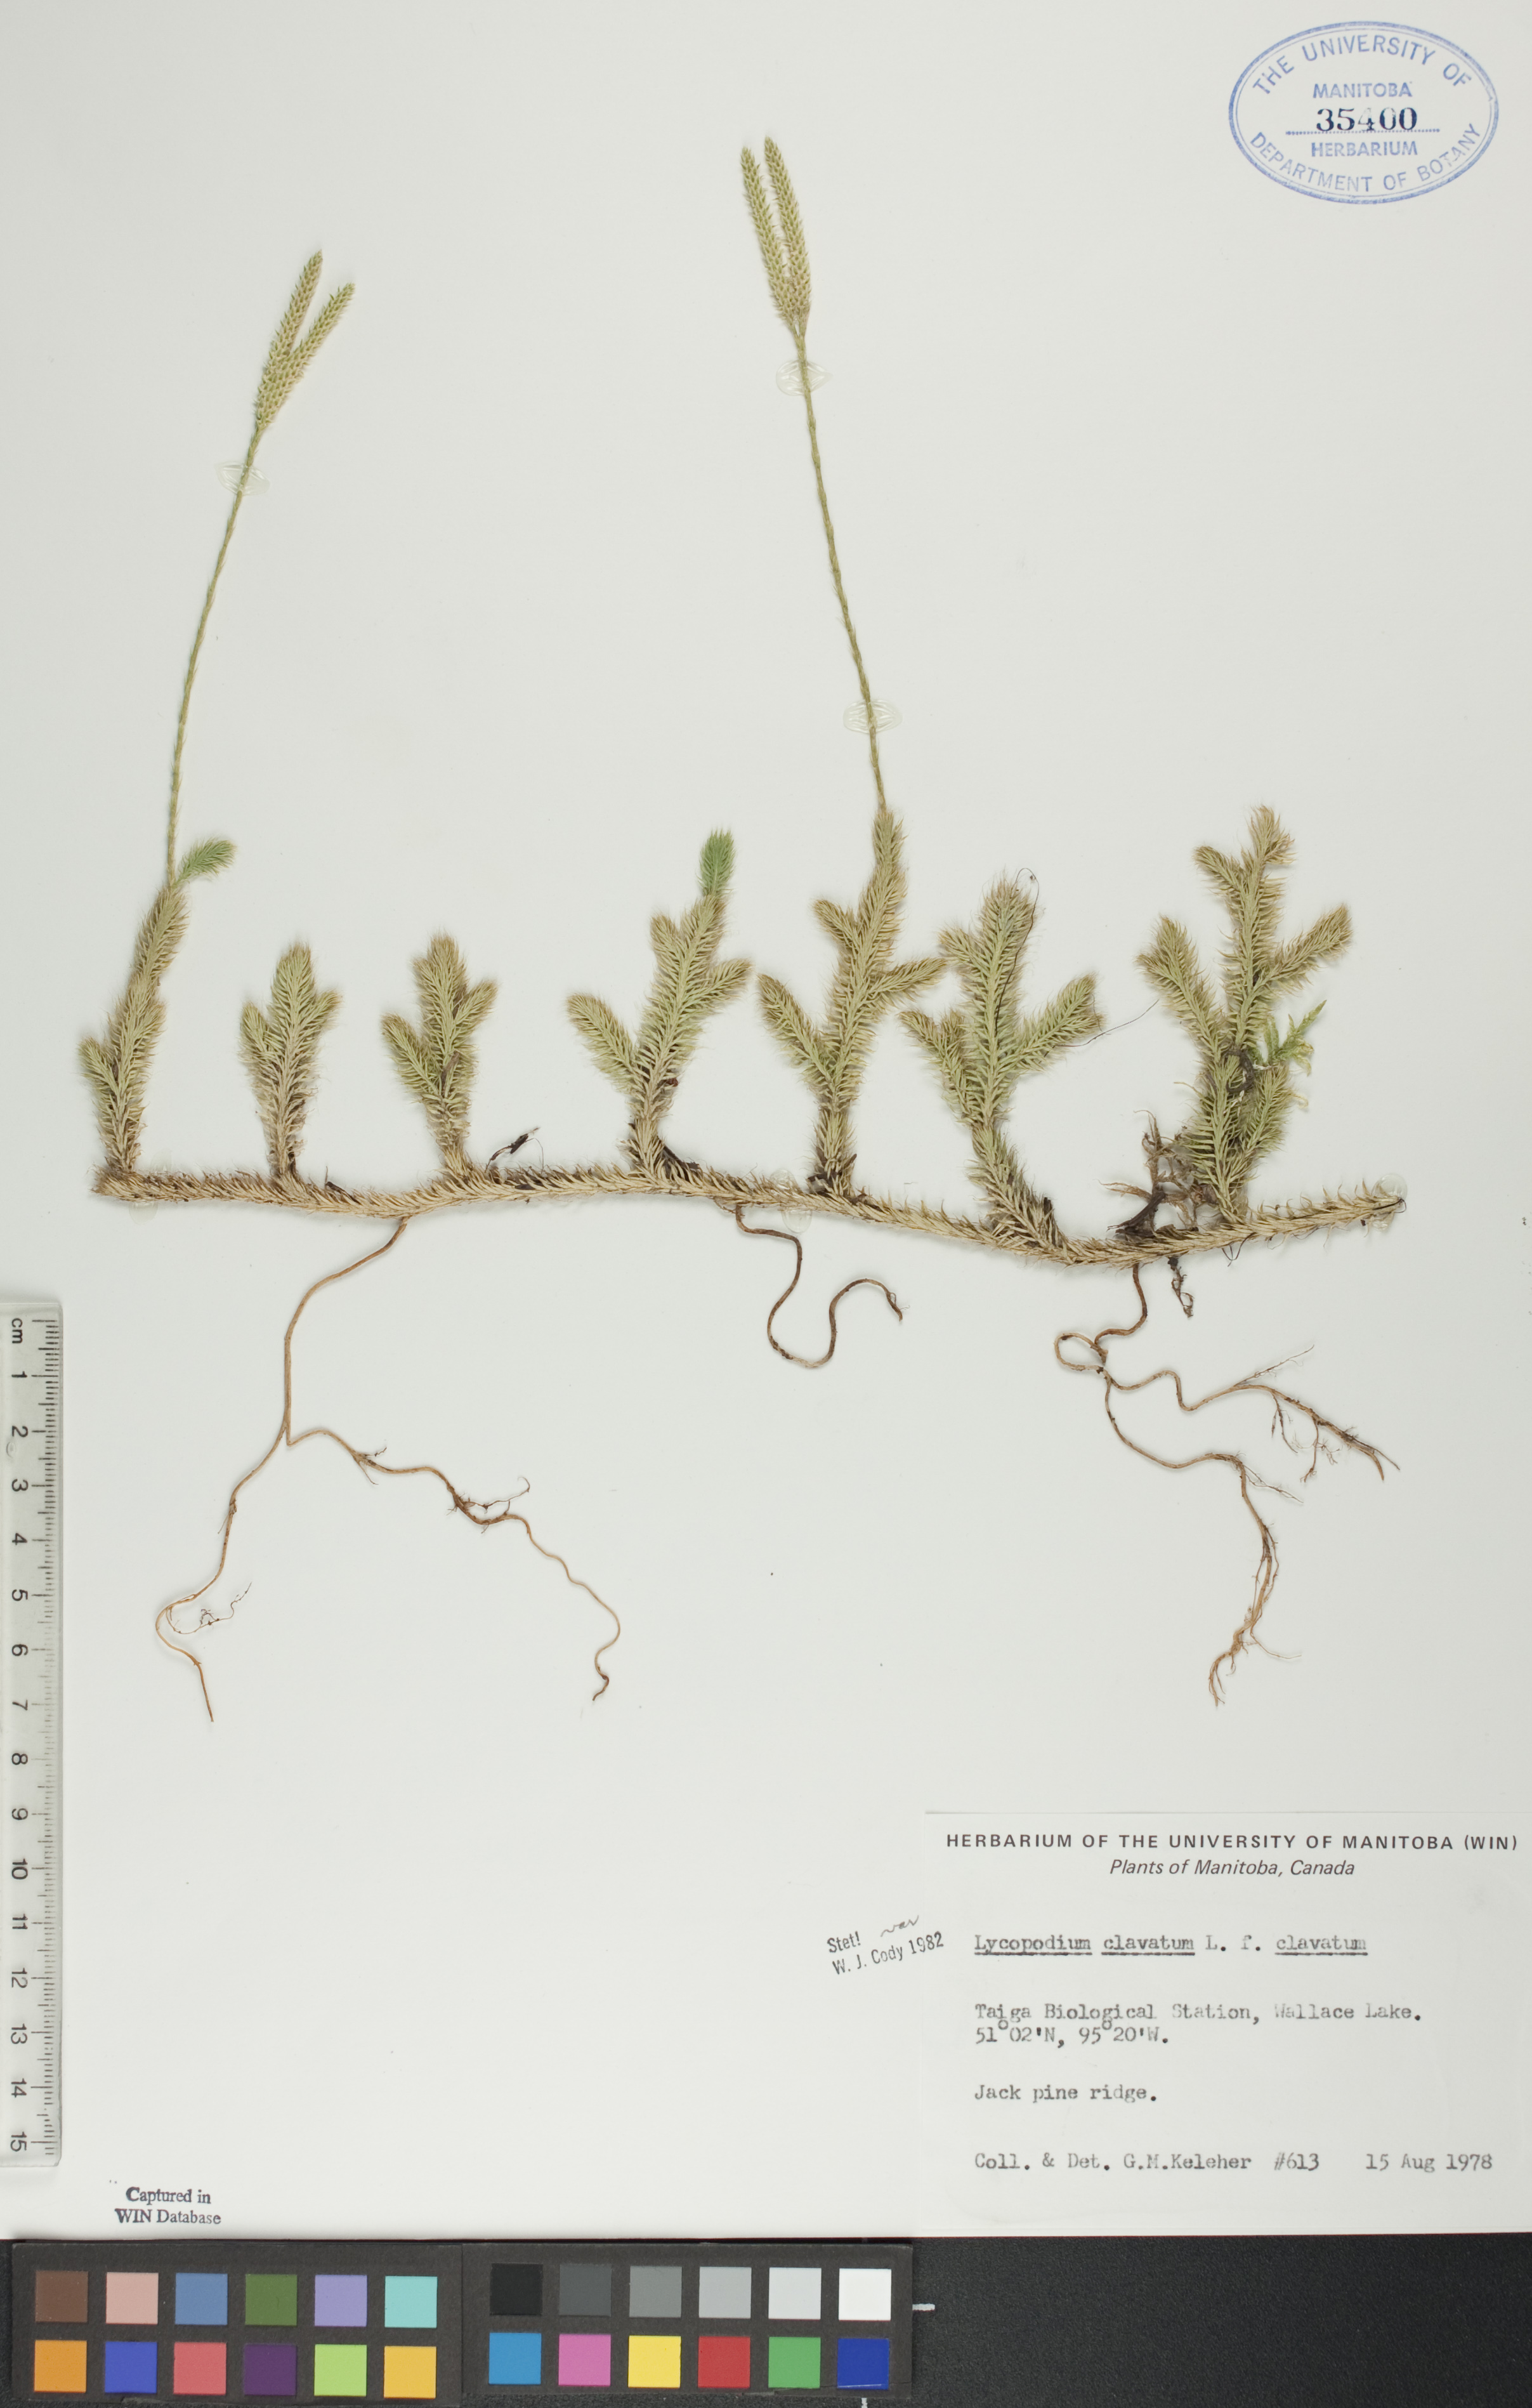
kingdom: Plantae
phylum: Tracheophyta
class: Lycopodiopsida
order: Lycopodiales
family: Lycopodiaceae
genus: Lycopodium
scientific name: Lycopodium clavatum
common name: Stag's-horn clubmoss
